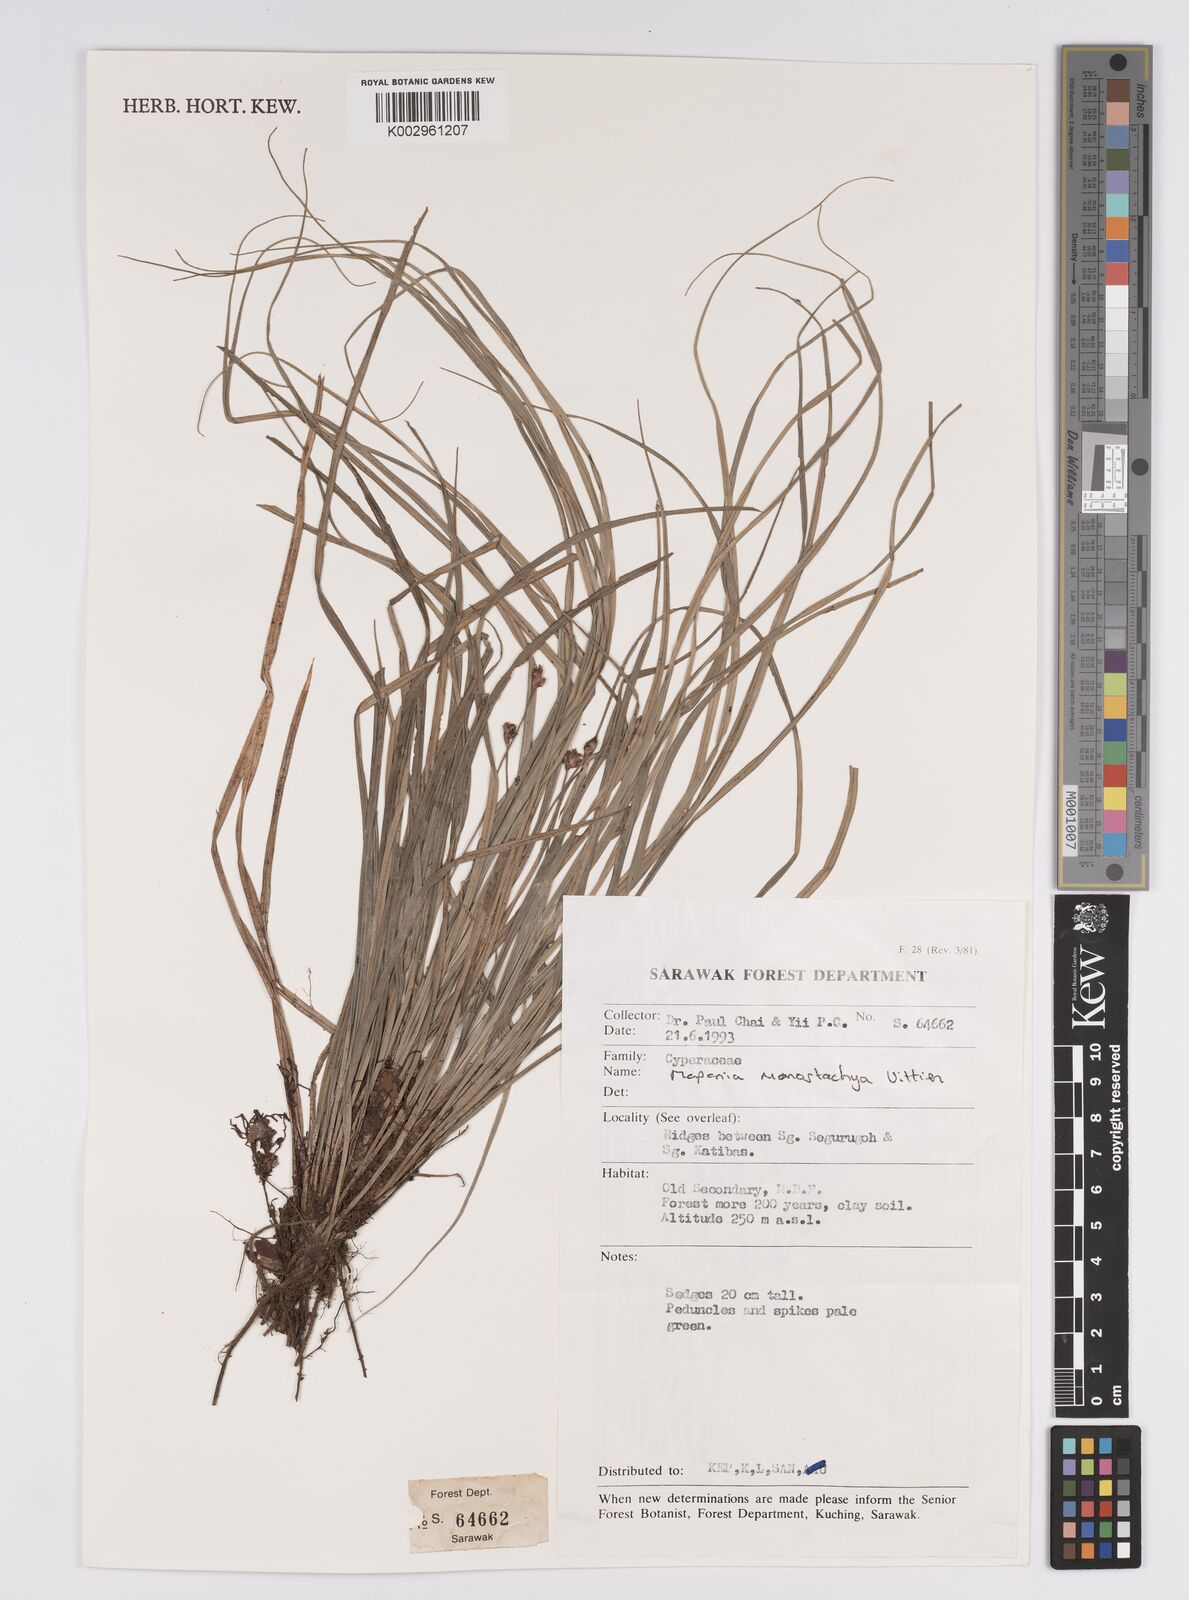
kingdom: Plantae
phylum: Tracheophyta
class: Liliopsida
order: Poales
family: Cyperaceae
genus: Mapania
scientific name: Mapania monostachya
